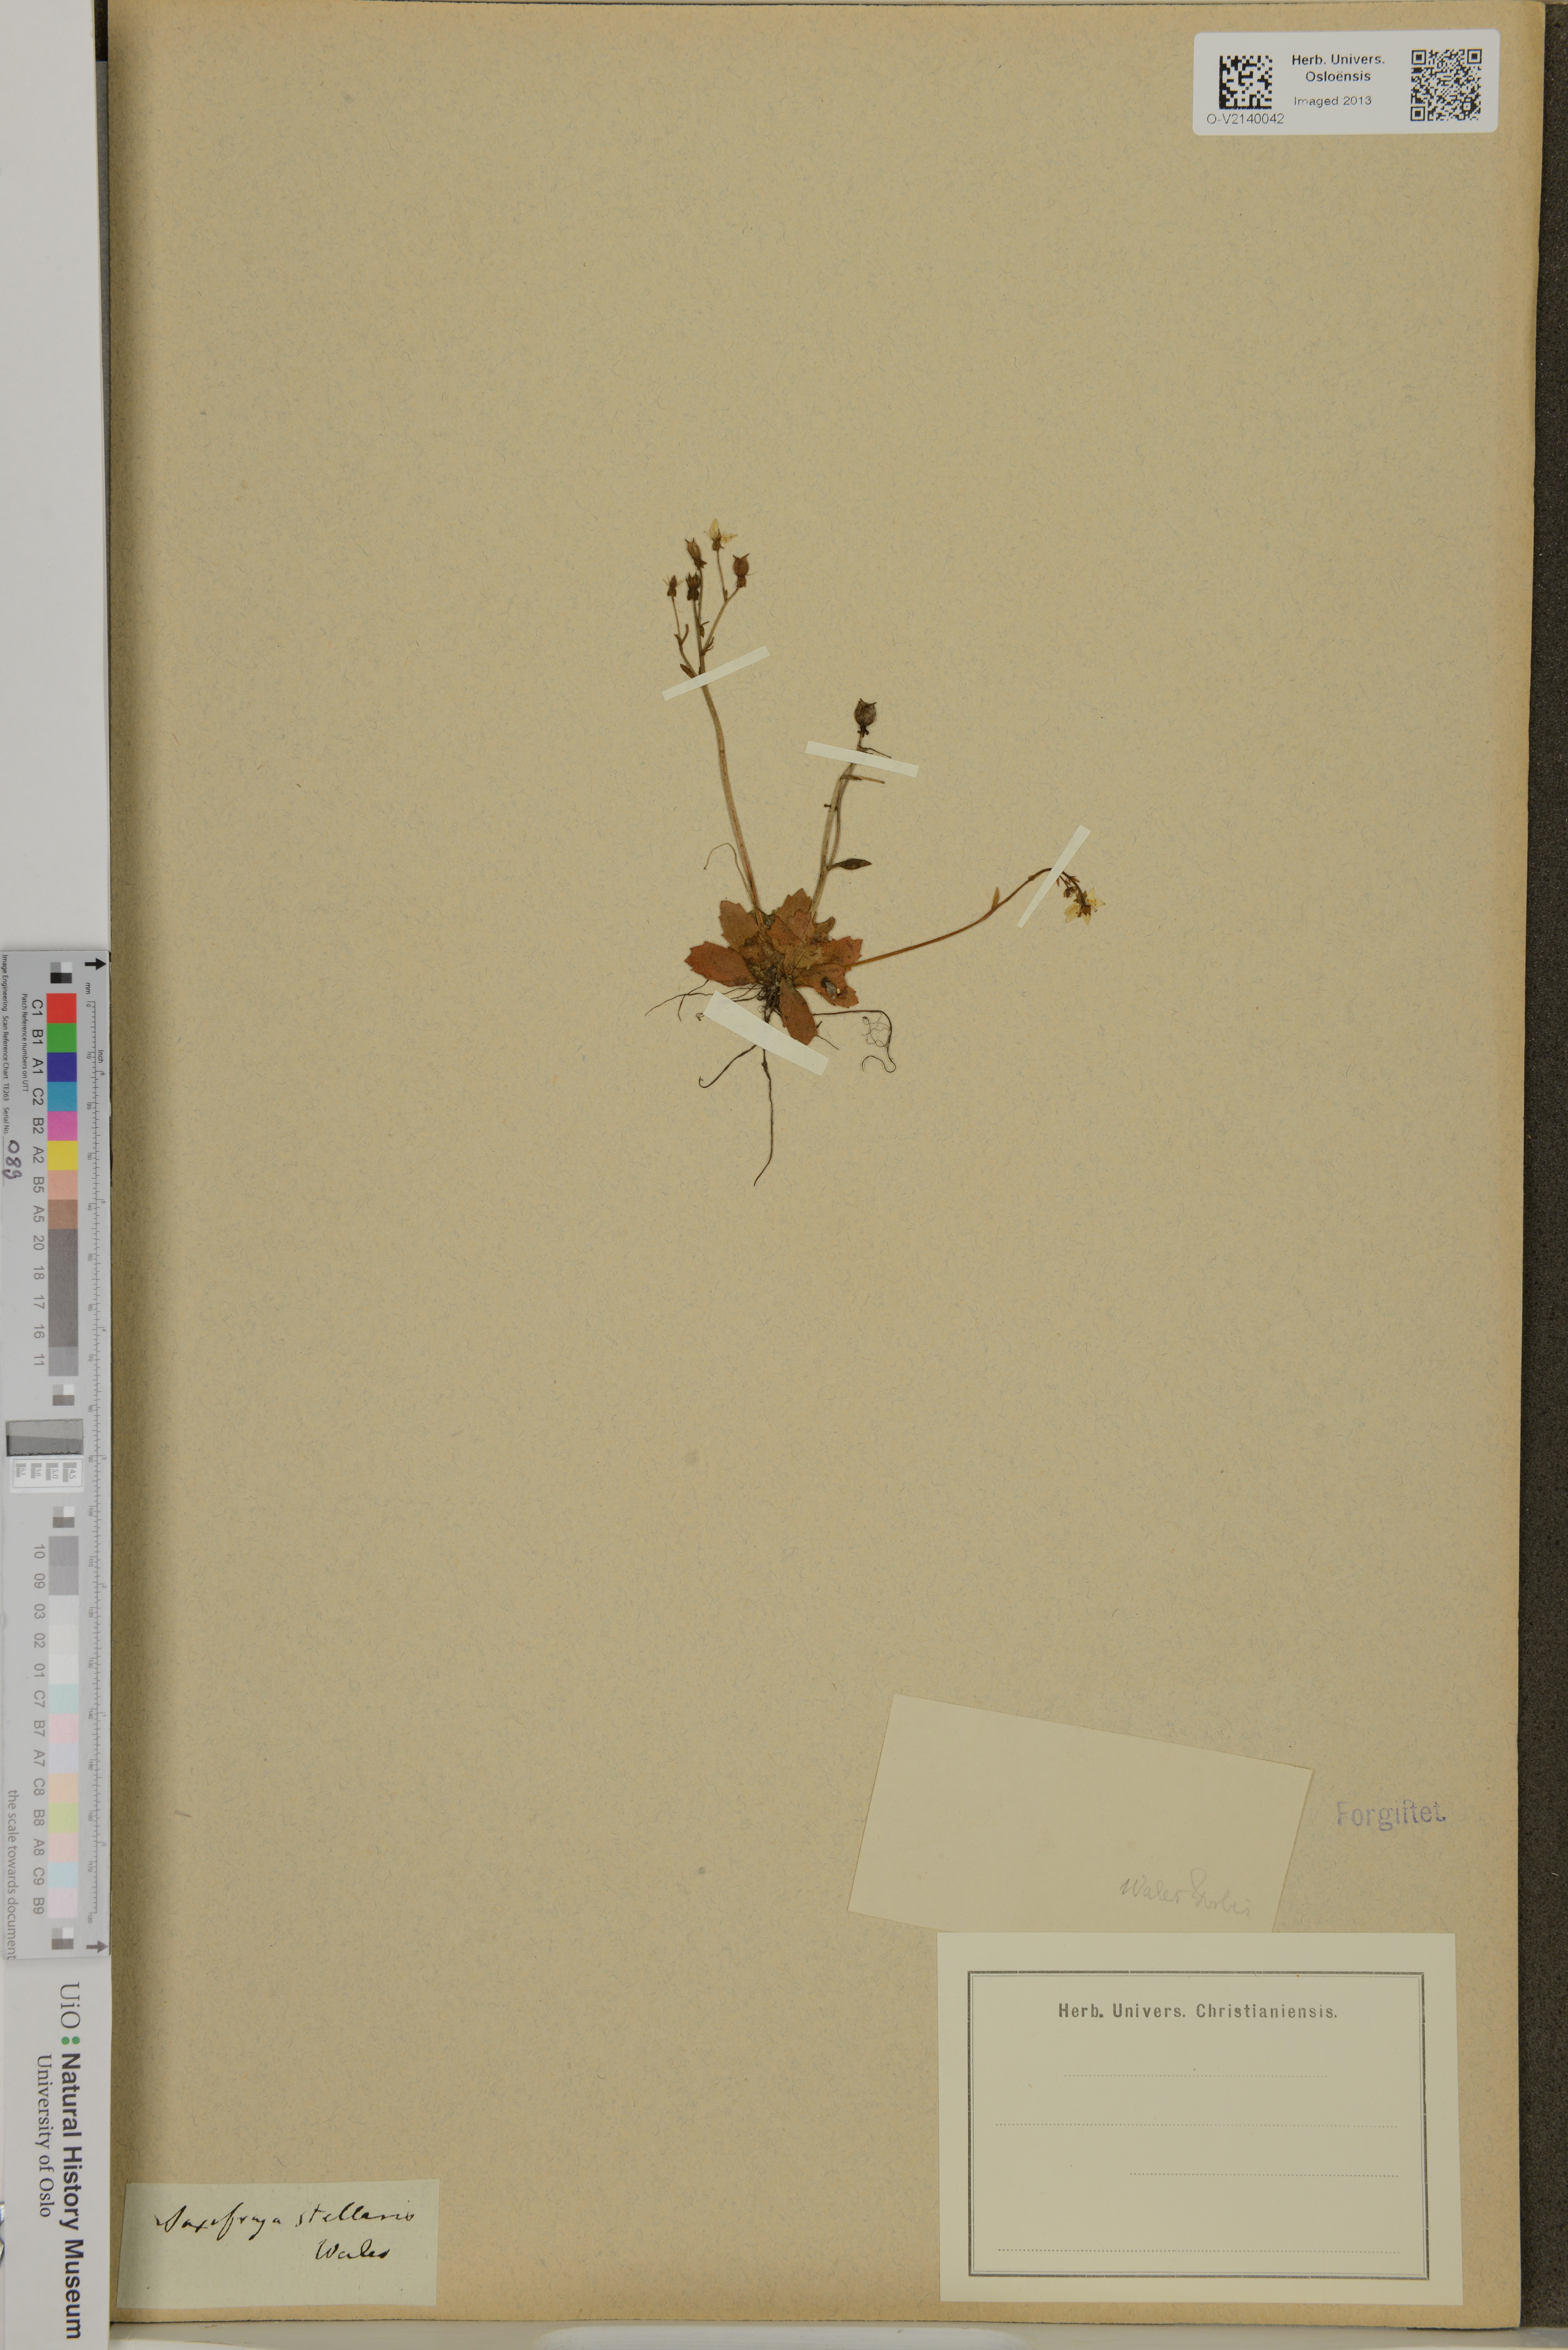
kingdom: Plantae
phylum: Tracheophyta
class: Magnoliopsida
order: Saxifragales
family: Saxifragaceae
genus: Micranthes
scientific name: Micranthes stellaris
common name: Starry saxifrage
